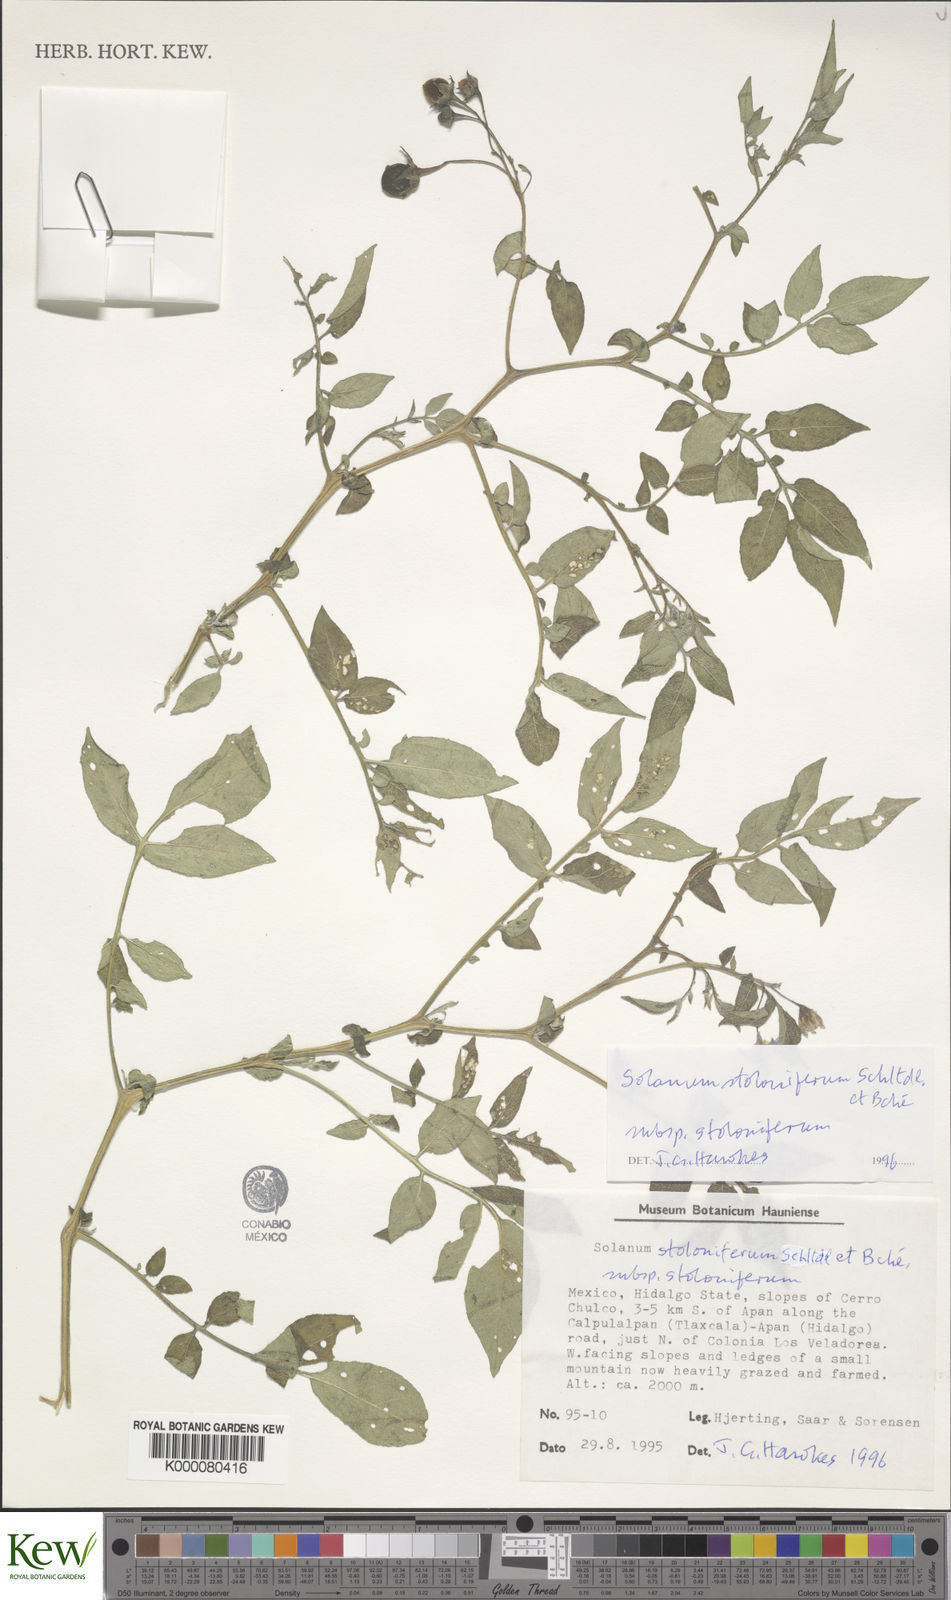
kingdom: Plantae
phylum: Tracheophyta
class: Magnoliopsida
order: Solanales
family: Solanaceae
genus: Solanum
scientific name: Solanum stoloniferum
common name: Fendler's nighshade
